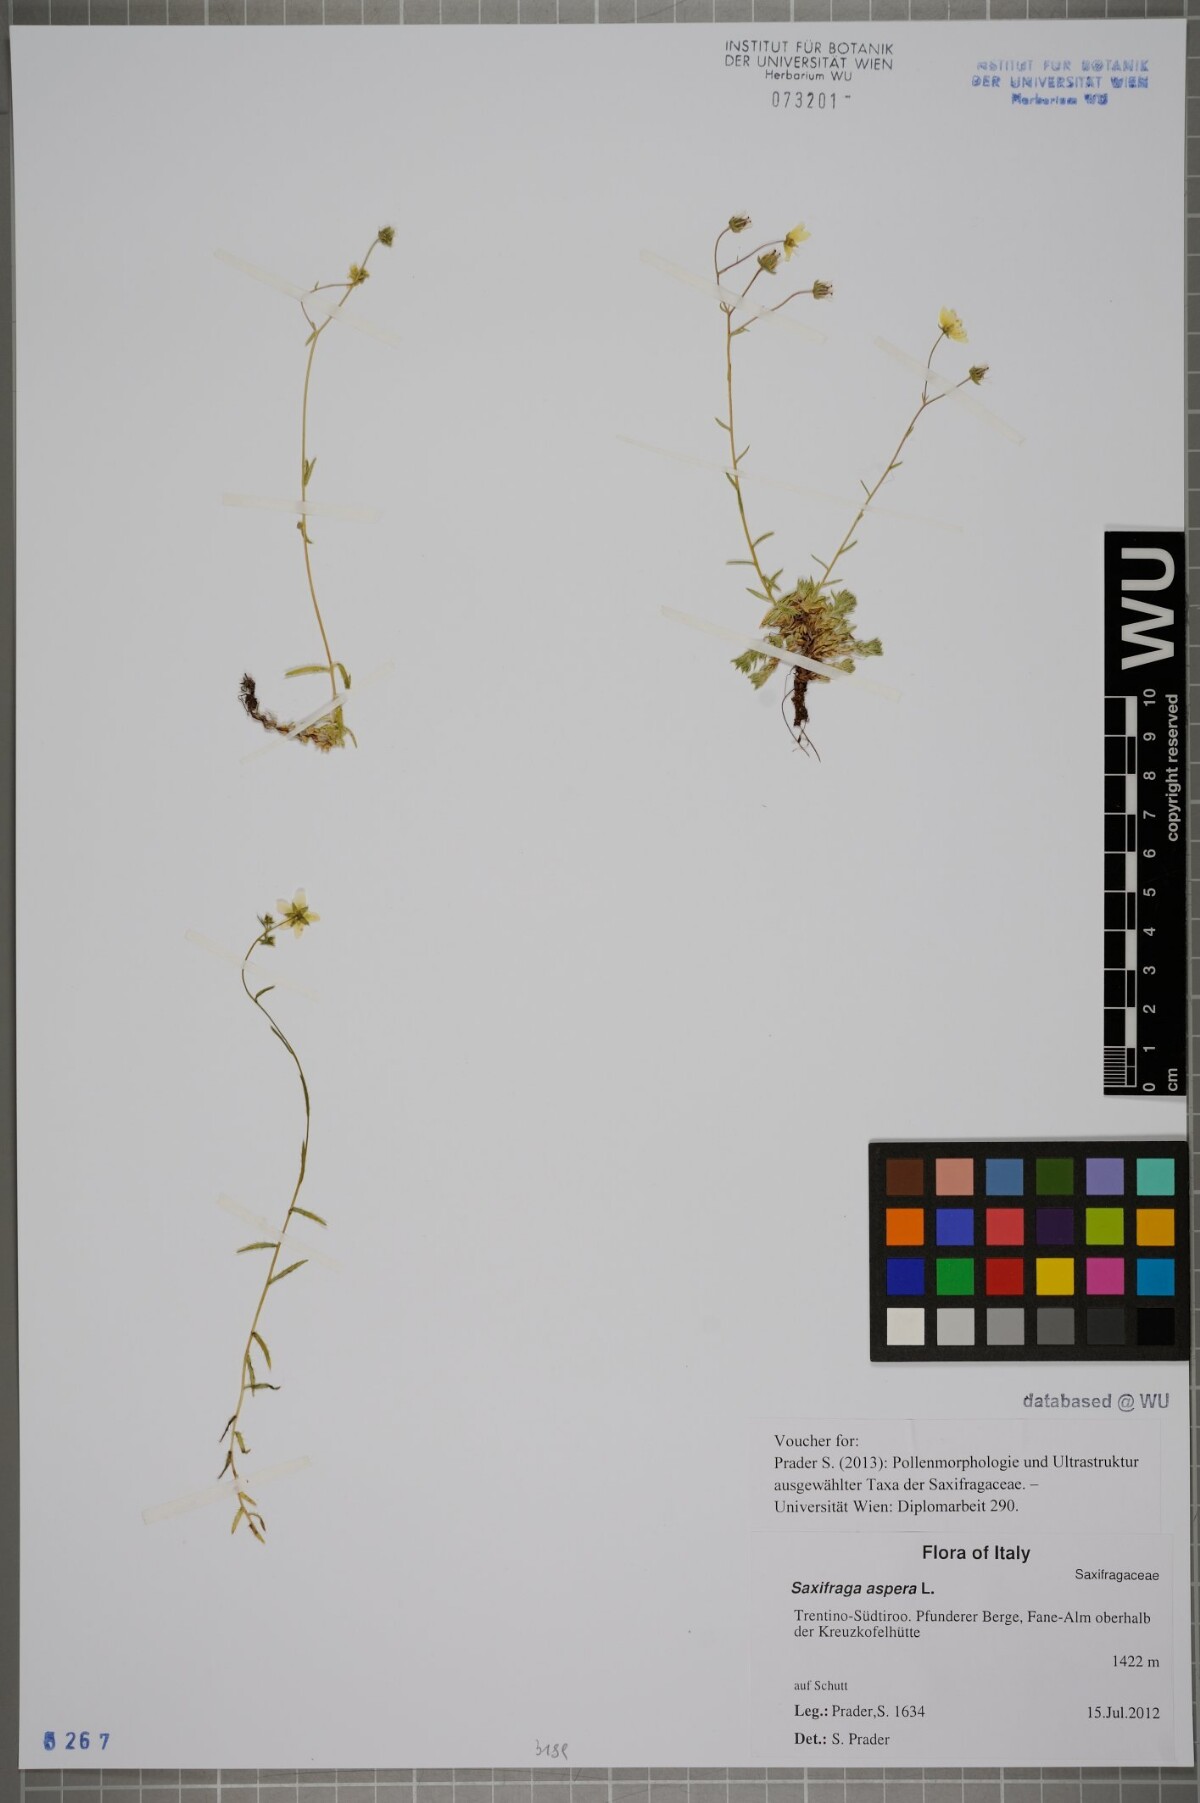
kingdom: Plantae
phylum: Tracheophyta
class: Magnoliopsida
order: Saxifragales
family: Saxifragaceae
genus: Saxifraga
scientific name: Saxifraga aspera
